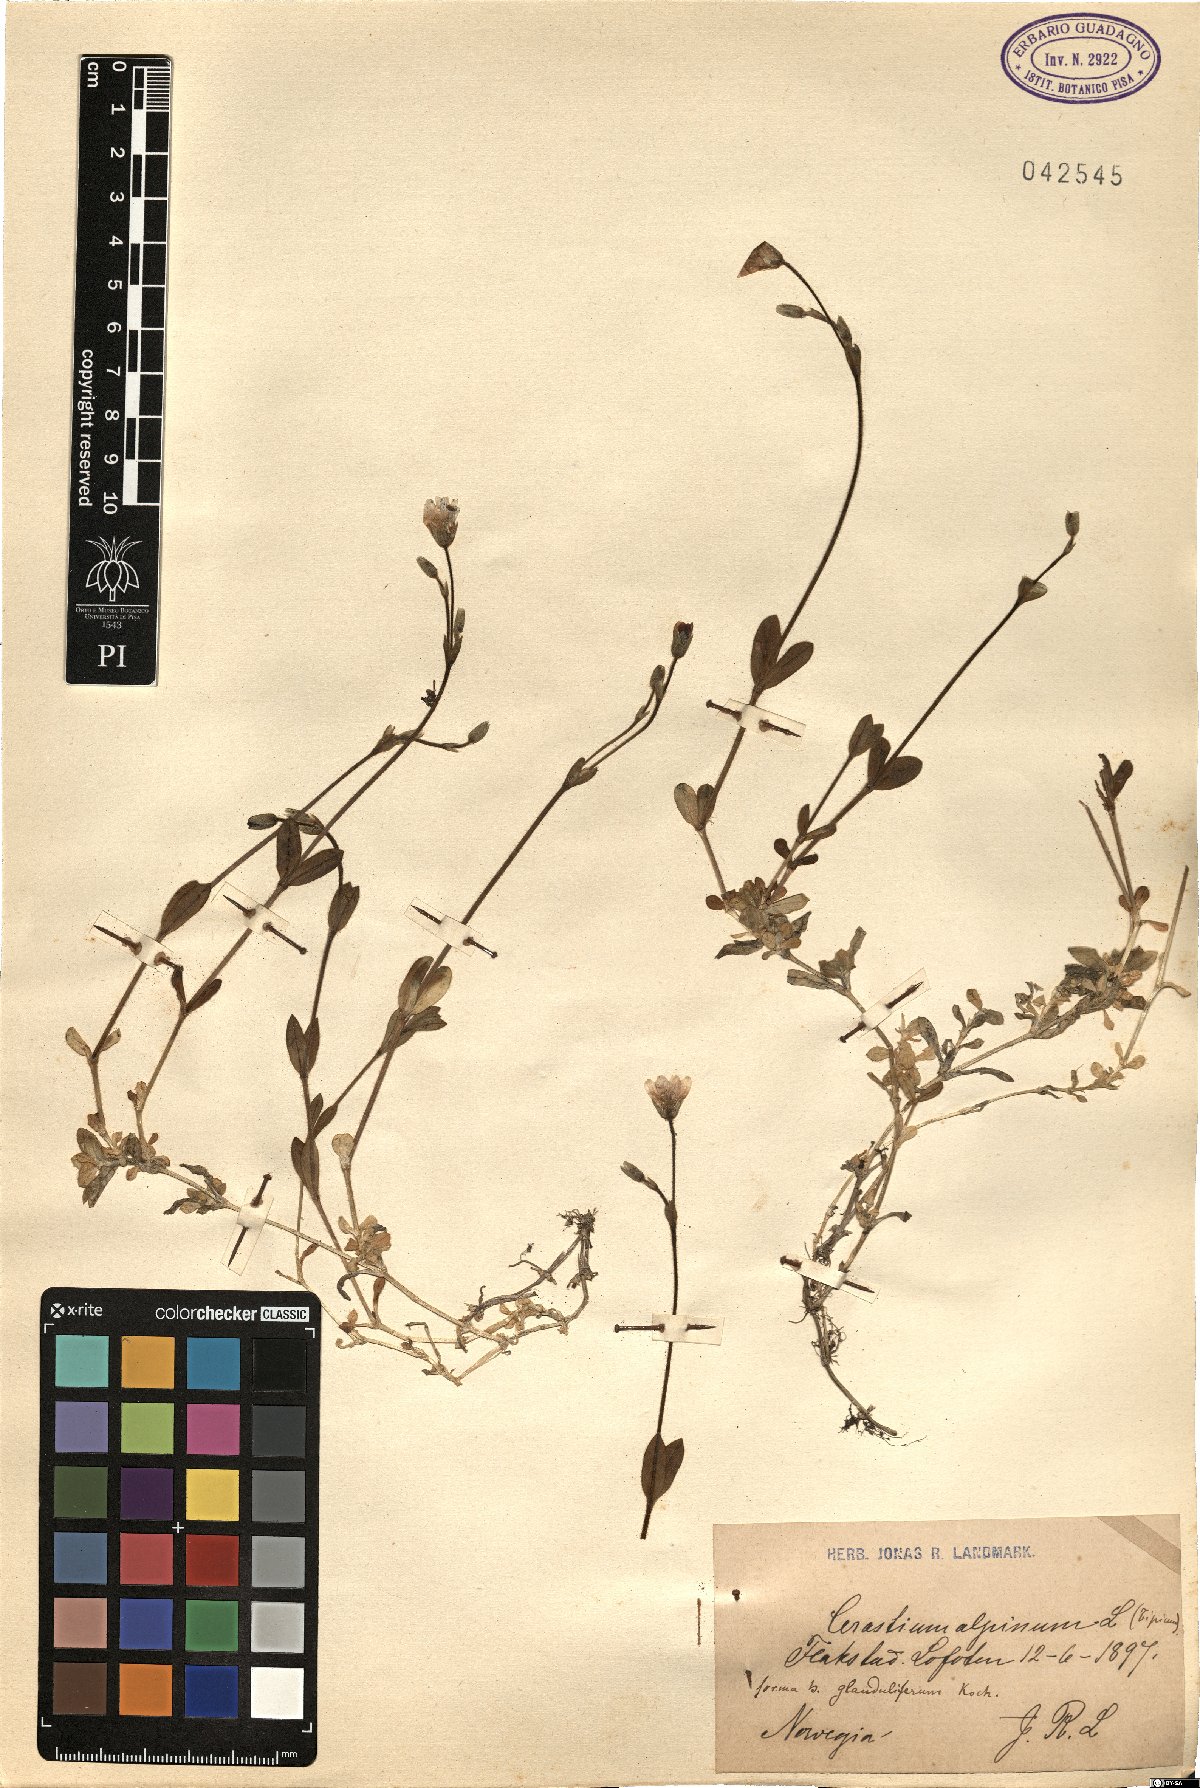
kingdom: Plantae
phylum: Tracheophyta
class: Magnoliopsida
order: Caryophyllales
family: Caryophyllaceae
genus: Cerastium
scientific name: Cerastium alpinum
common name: Alpine mouse-ear
